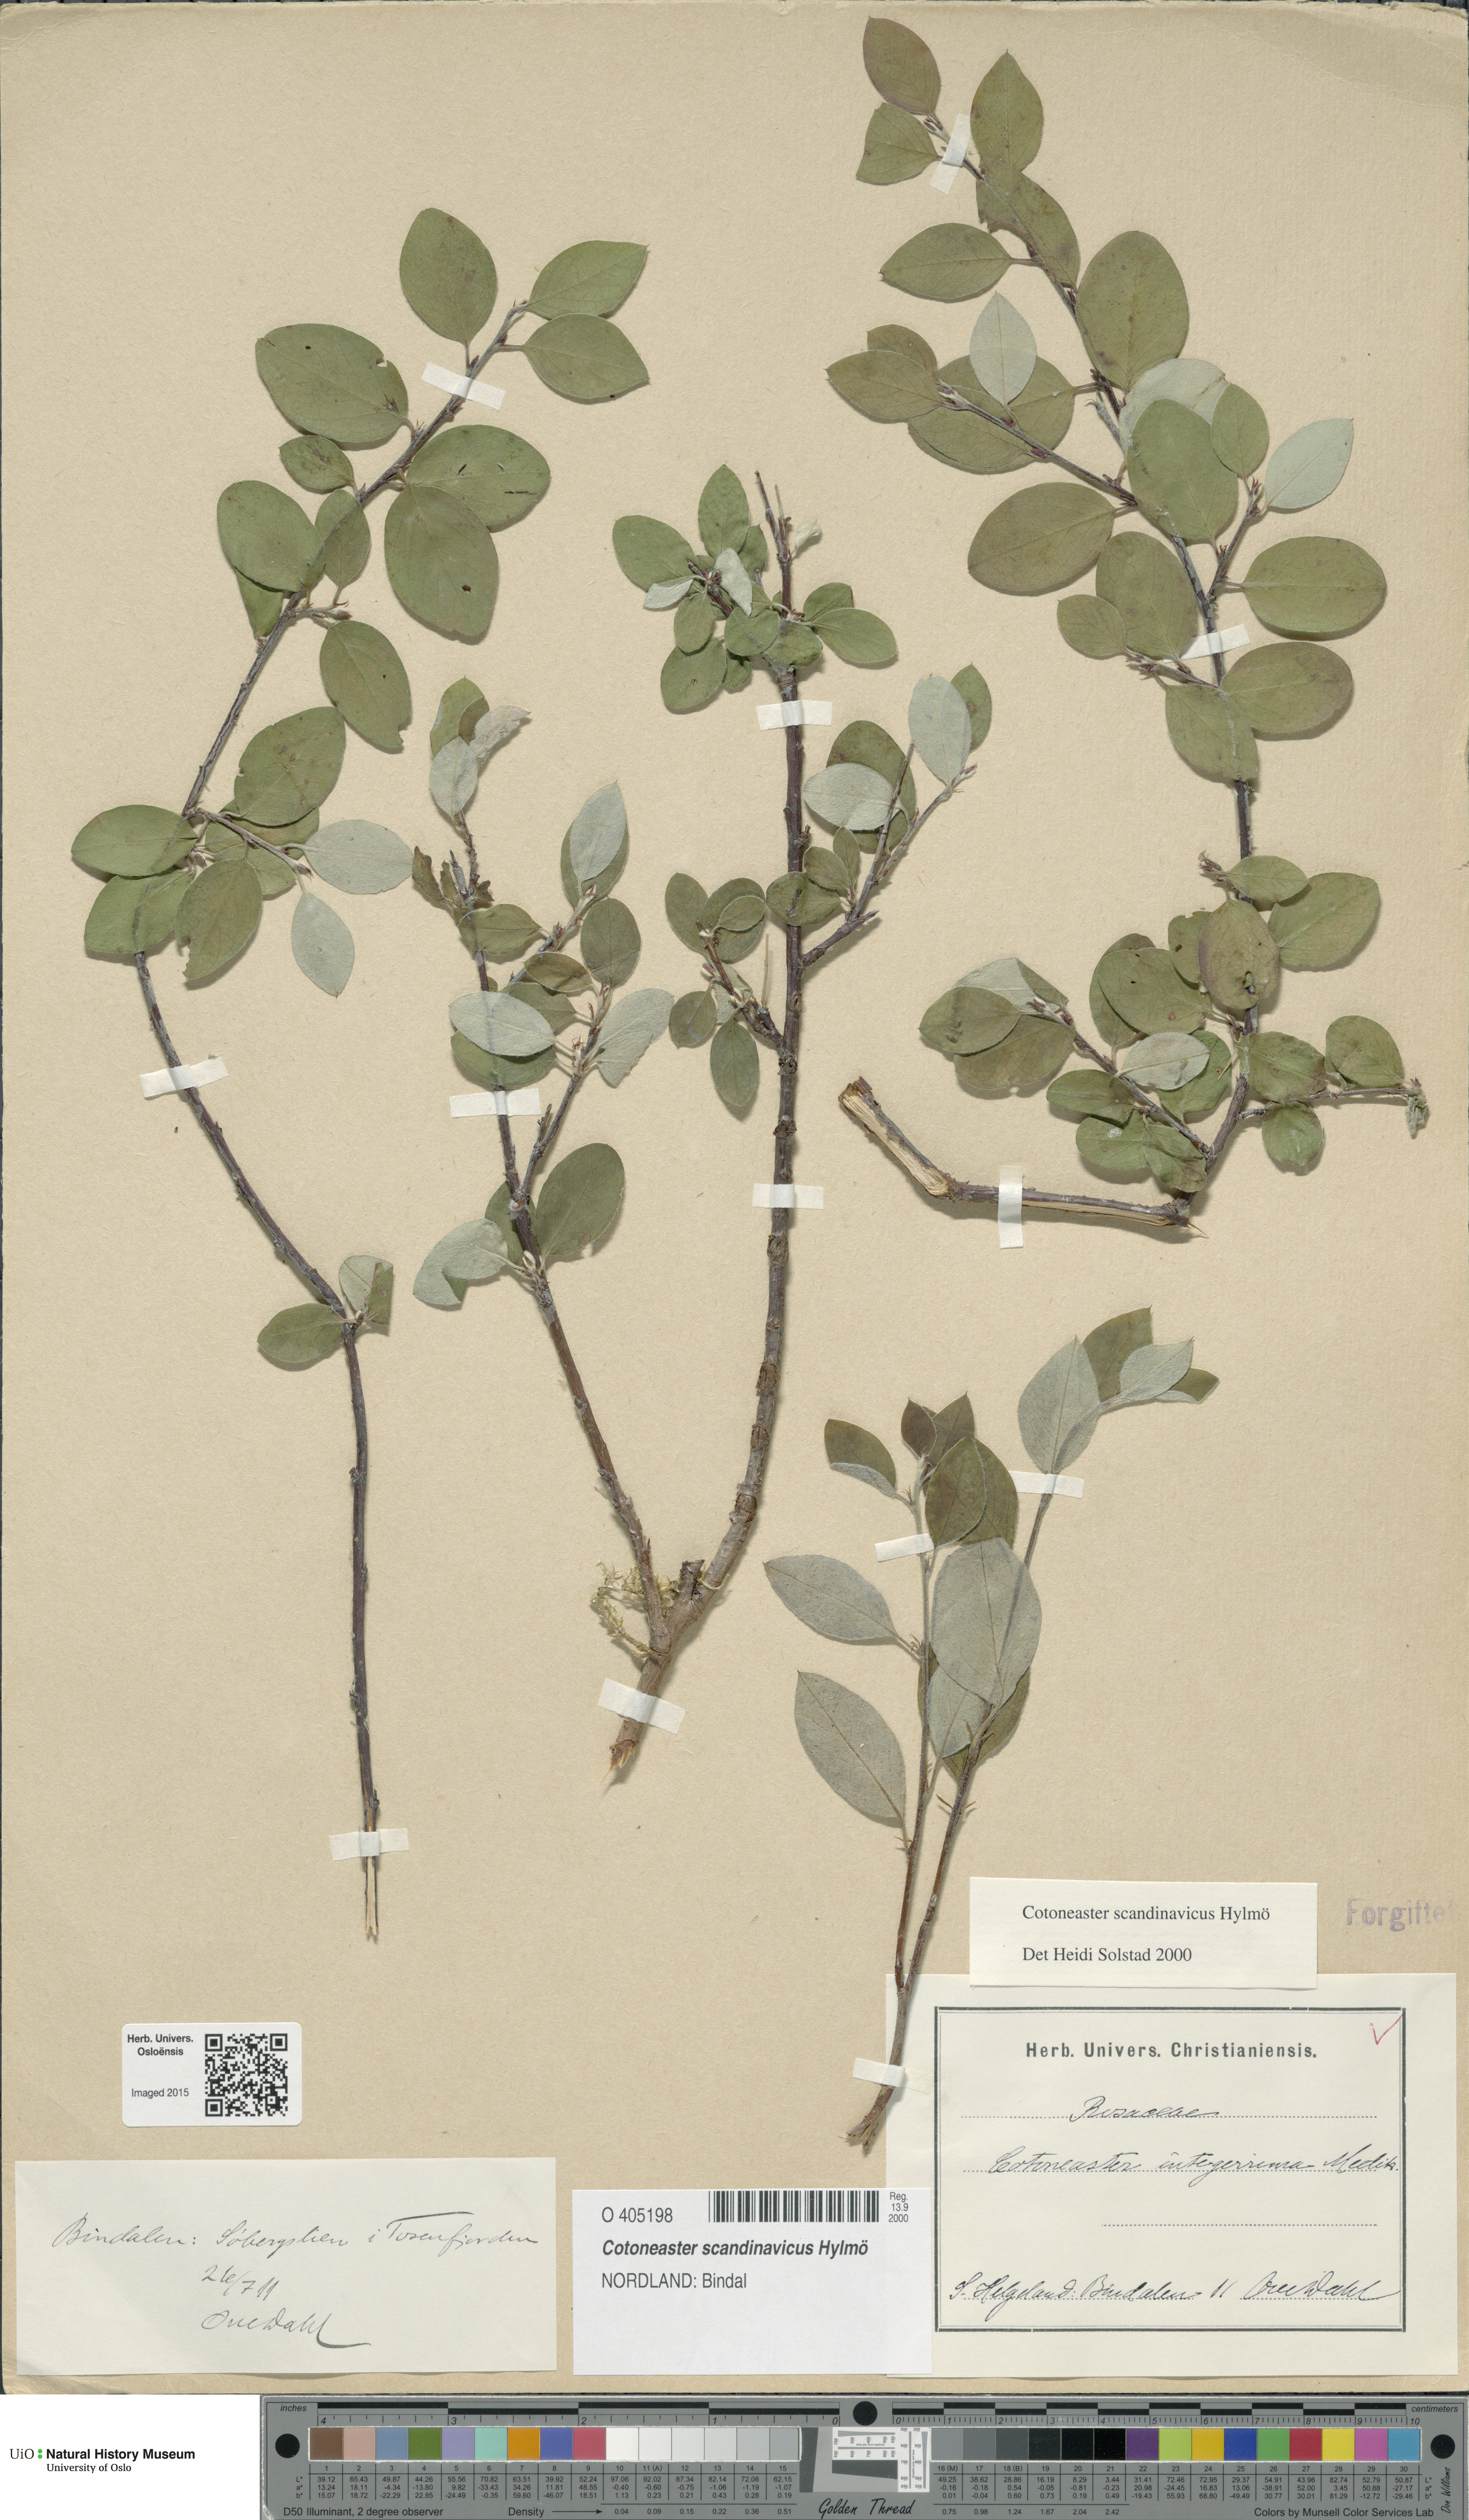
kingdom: Plantae
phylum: Tracheophyta
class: Magnoliopsida
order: Rosales
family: Rosaceae
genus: Cotoneaster
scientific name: Cotoneaster integerrimus
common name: Wild cotoneaster
